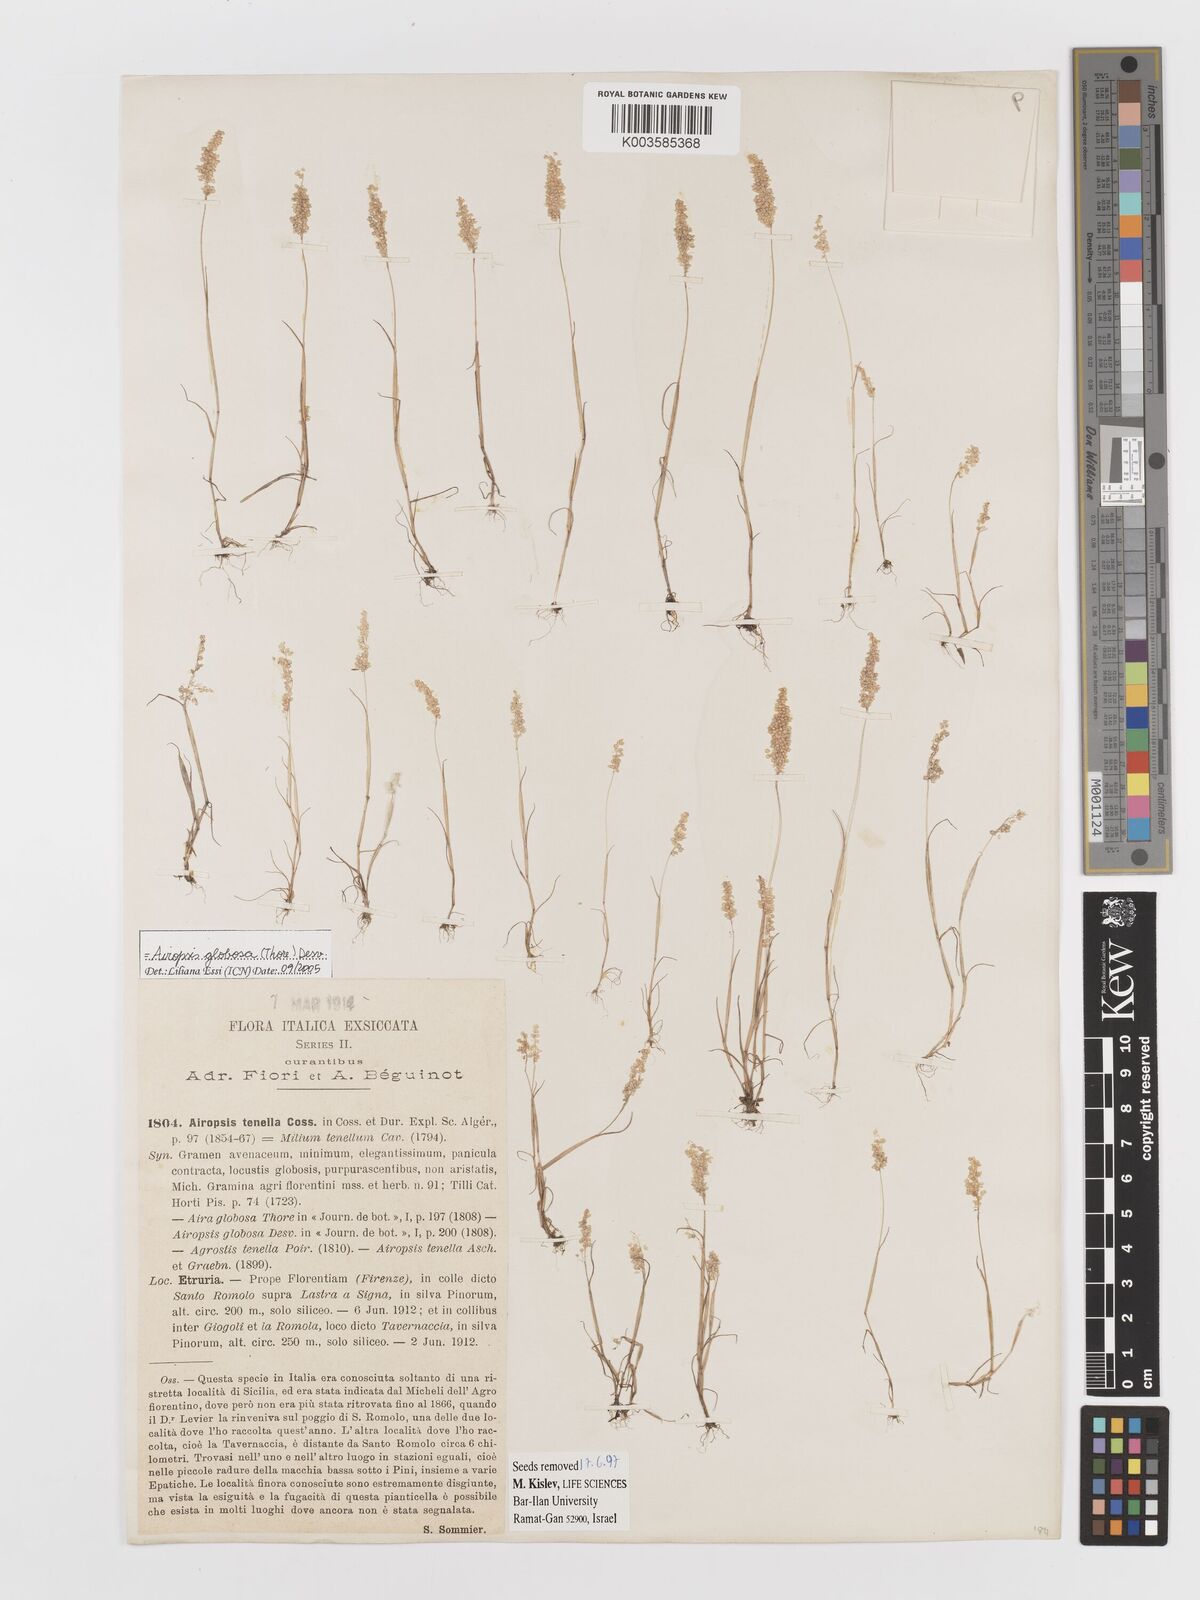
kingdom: Plantae
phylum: Tracheophyta
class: Liliopsida
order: Poales
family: Poaceae
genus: Airopsis
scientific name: Airopsis tenella
